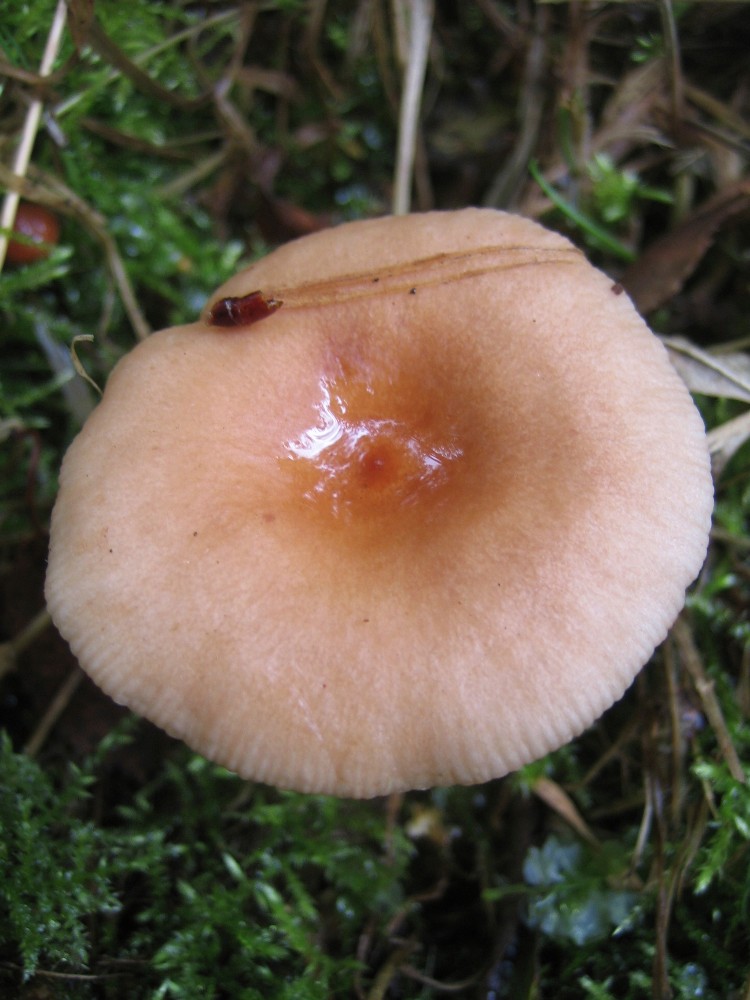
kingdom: Fungi
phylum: Basidiomycota
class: Agaricomycetes
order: Russulales
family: Russulaceae
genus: Lactarius
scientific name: Lactarius tabidus
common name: rynket mælkehat
